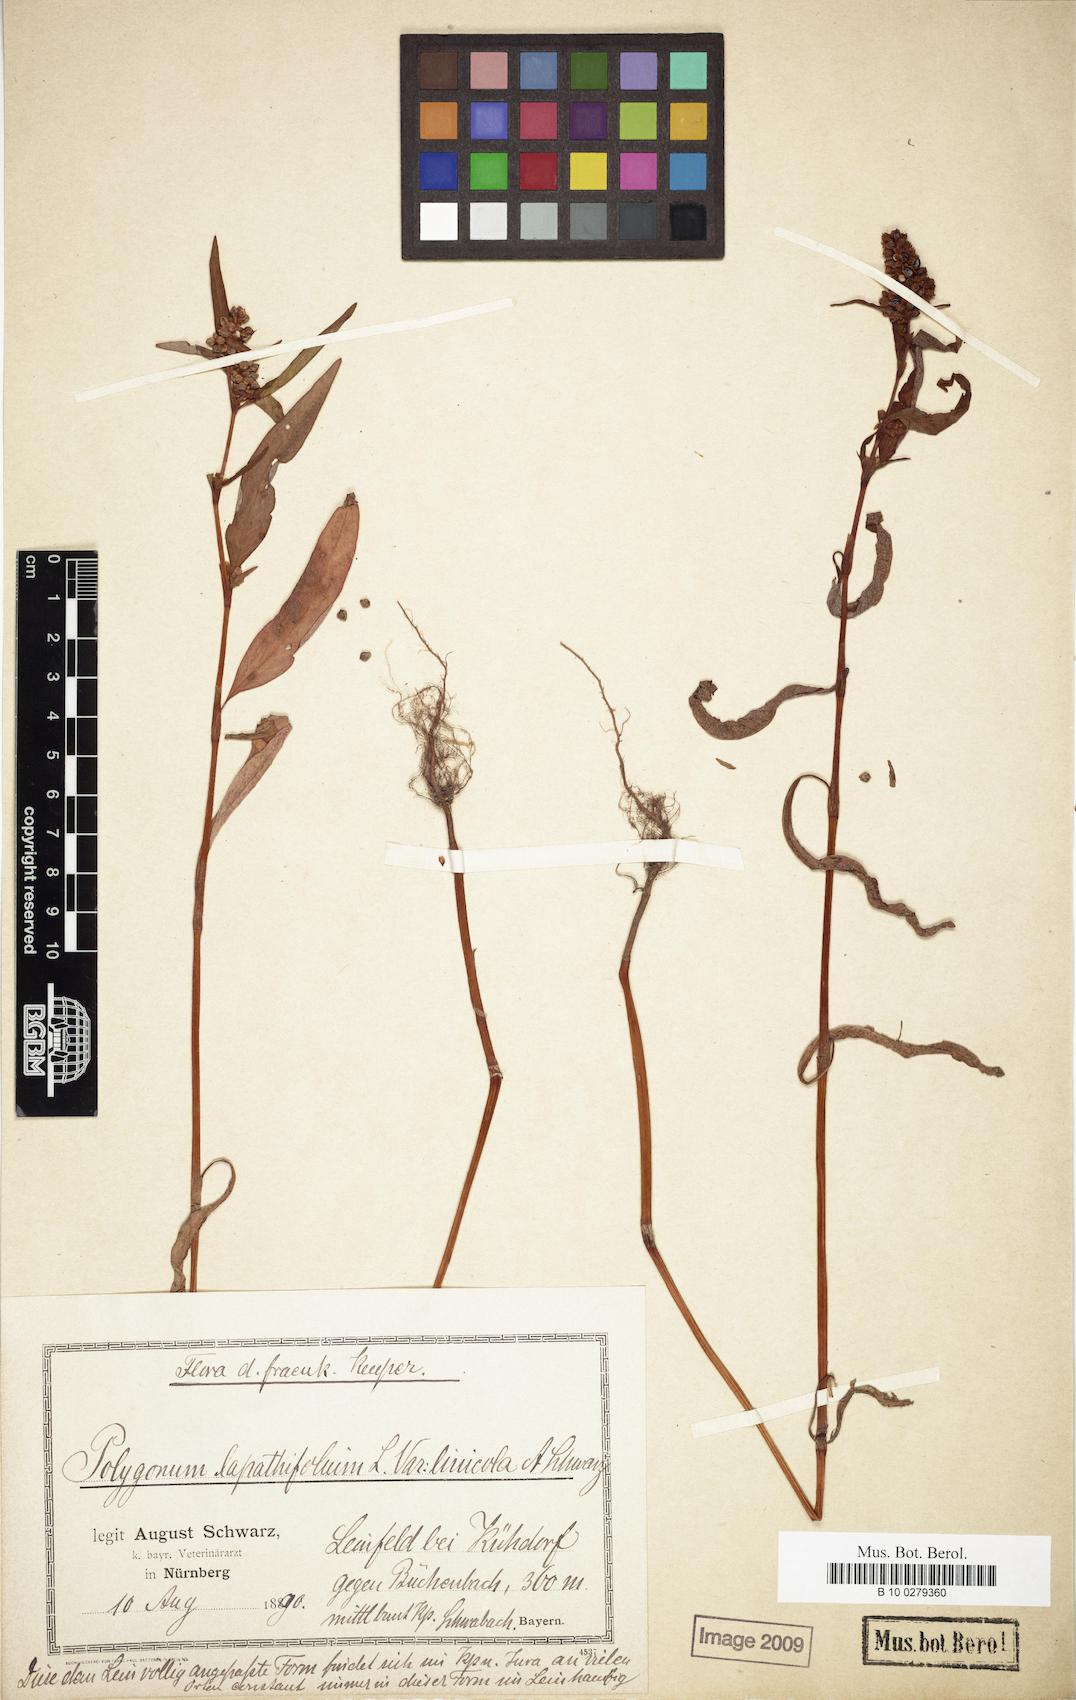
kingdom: Plantae
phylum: Tracheophyta
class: Magnoliopsida
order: Caryophyllales
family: Polygonaceae
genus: Persicaria
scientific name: Persicaria lapathifolia
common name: Curlytop knotweed
